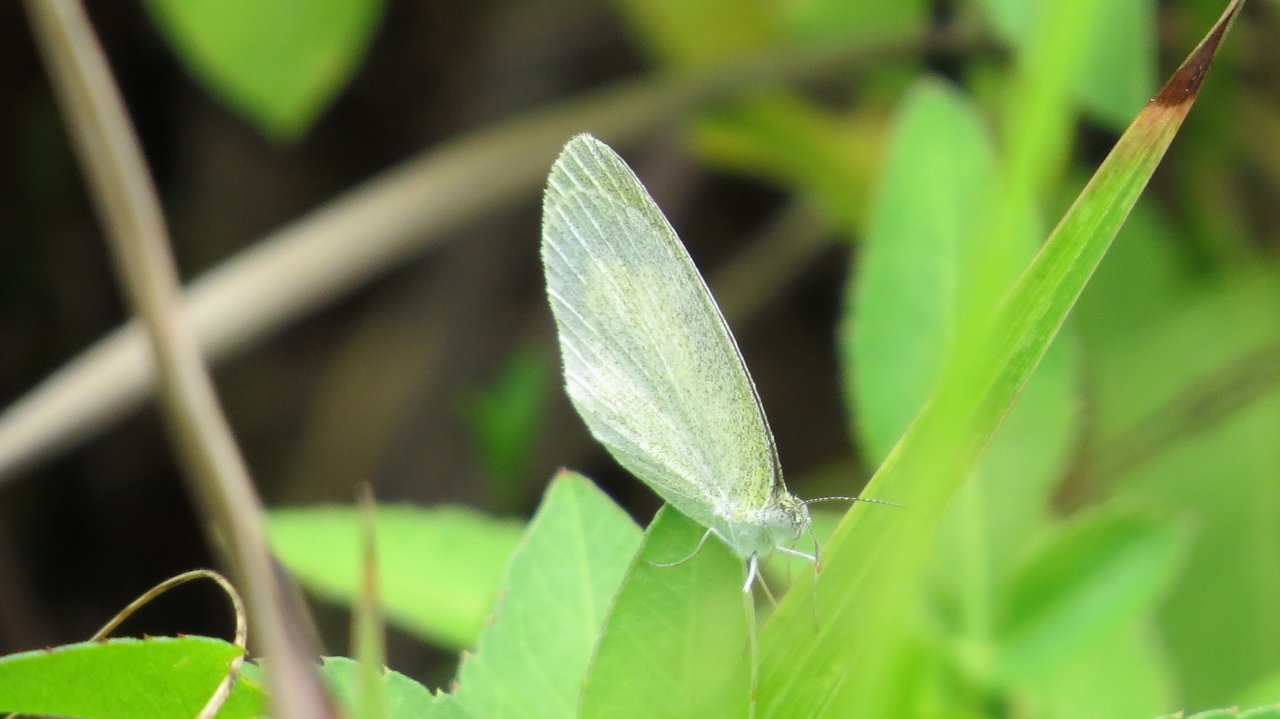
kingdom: Animalia
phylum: Arthropoda
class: Insecta
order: Lepidoptera
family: Pieridae
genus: Eurema
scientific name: Eurema daira
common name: Barred Yellow
